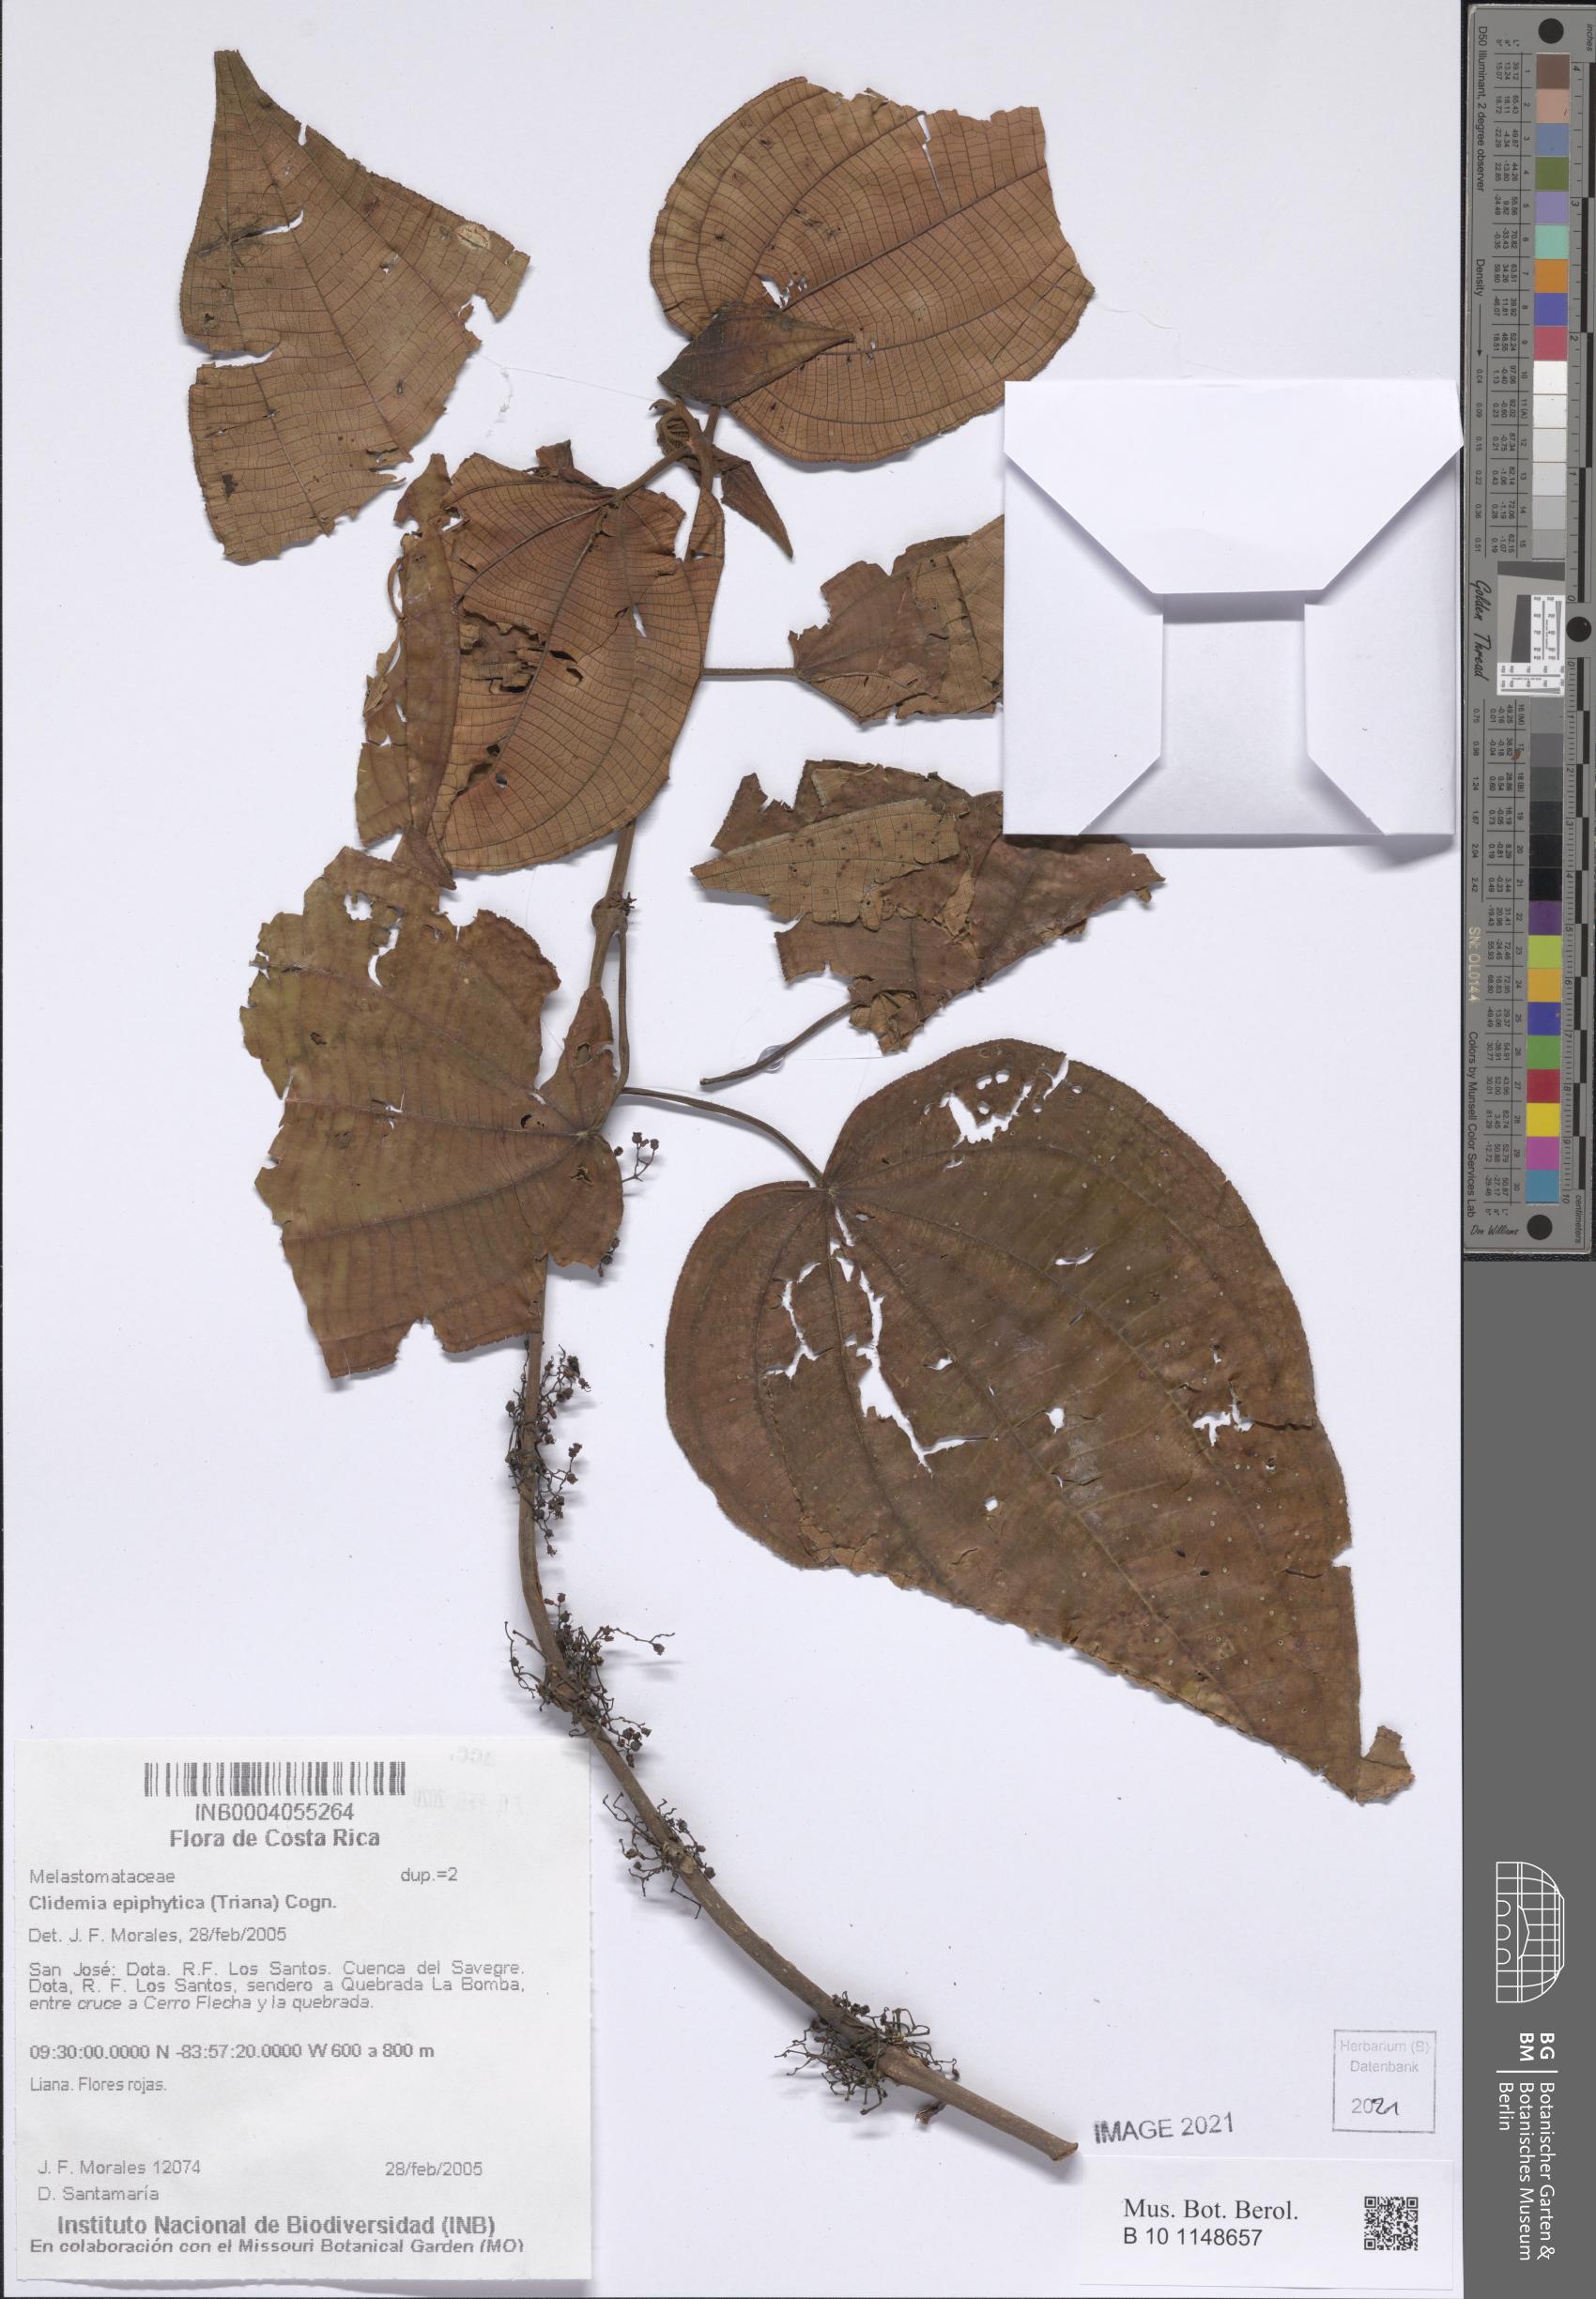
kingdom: Plantae
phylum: Tracheophyta
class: Magnoliopsida
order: Myrtales
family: Melastomataceae
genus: Miconia
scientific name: Miconia neoepiphytica
